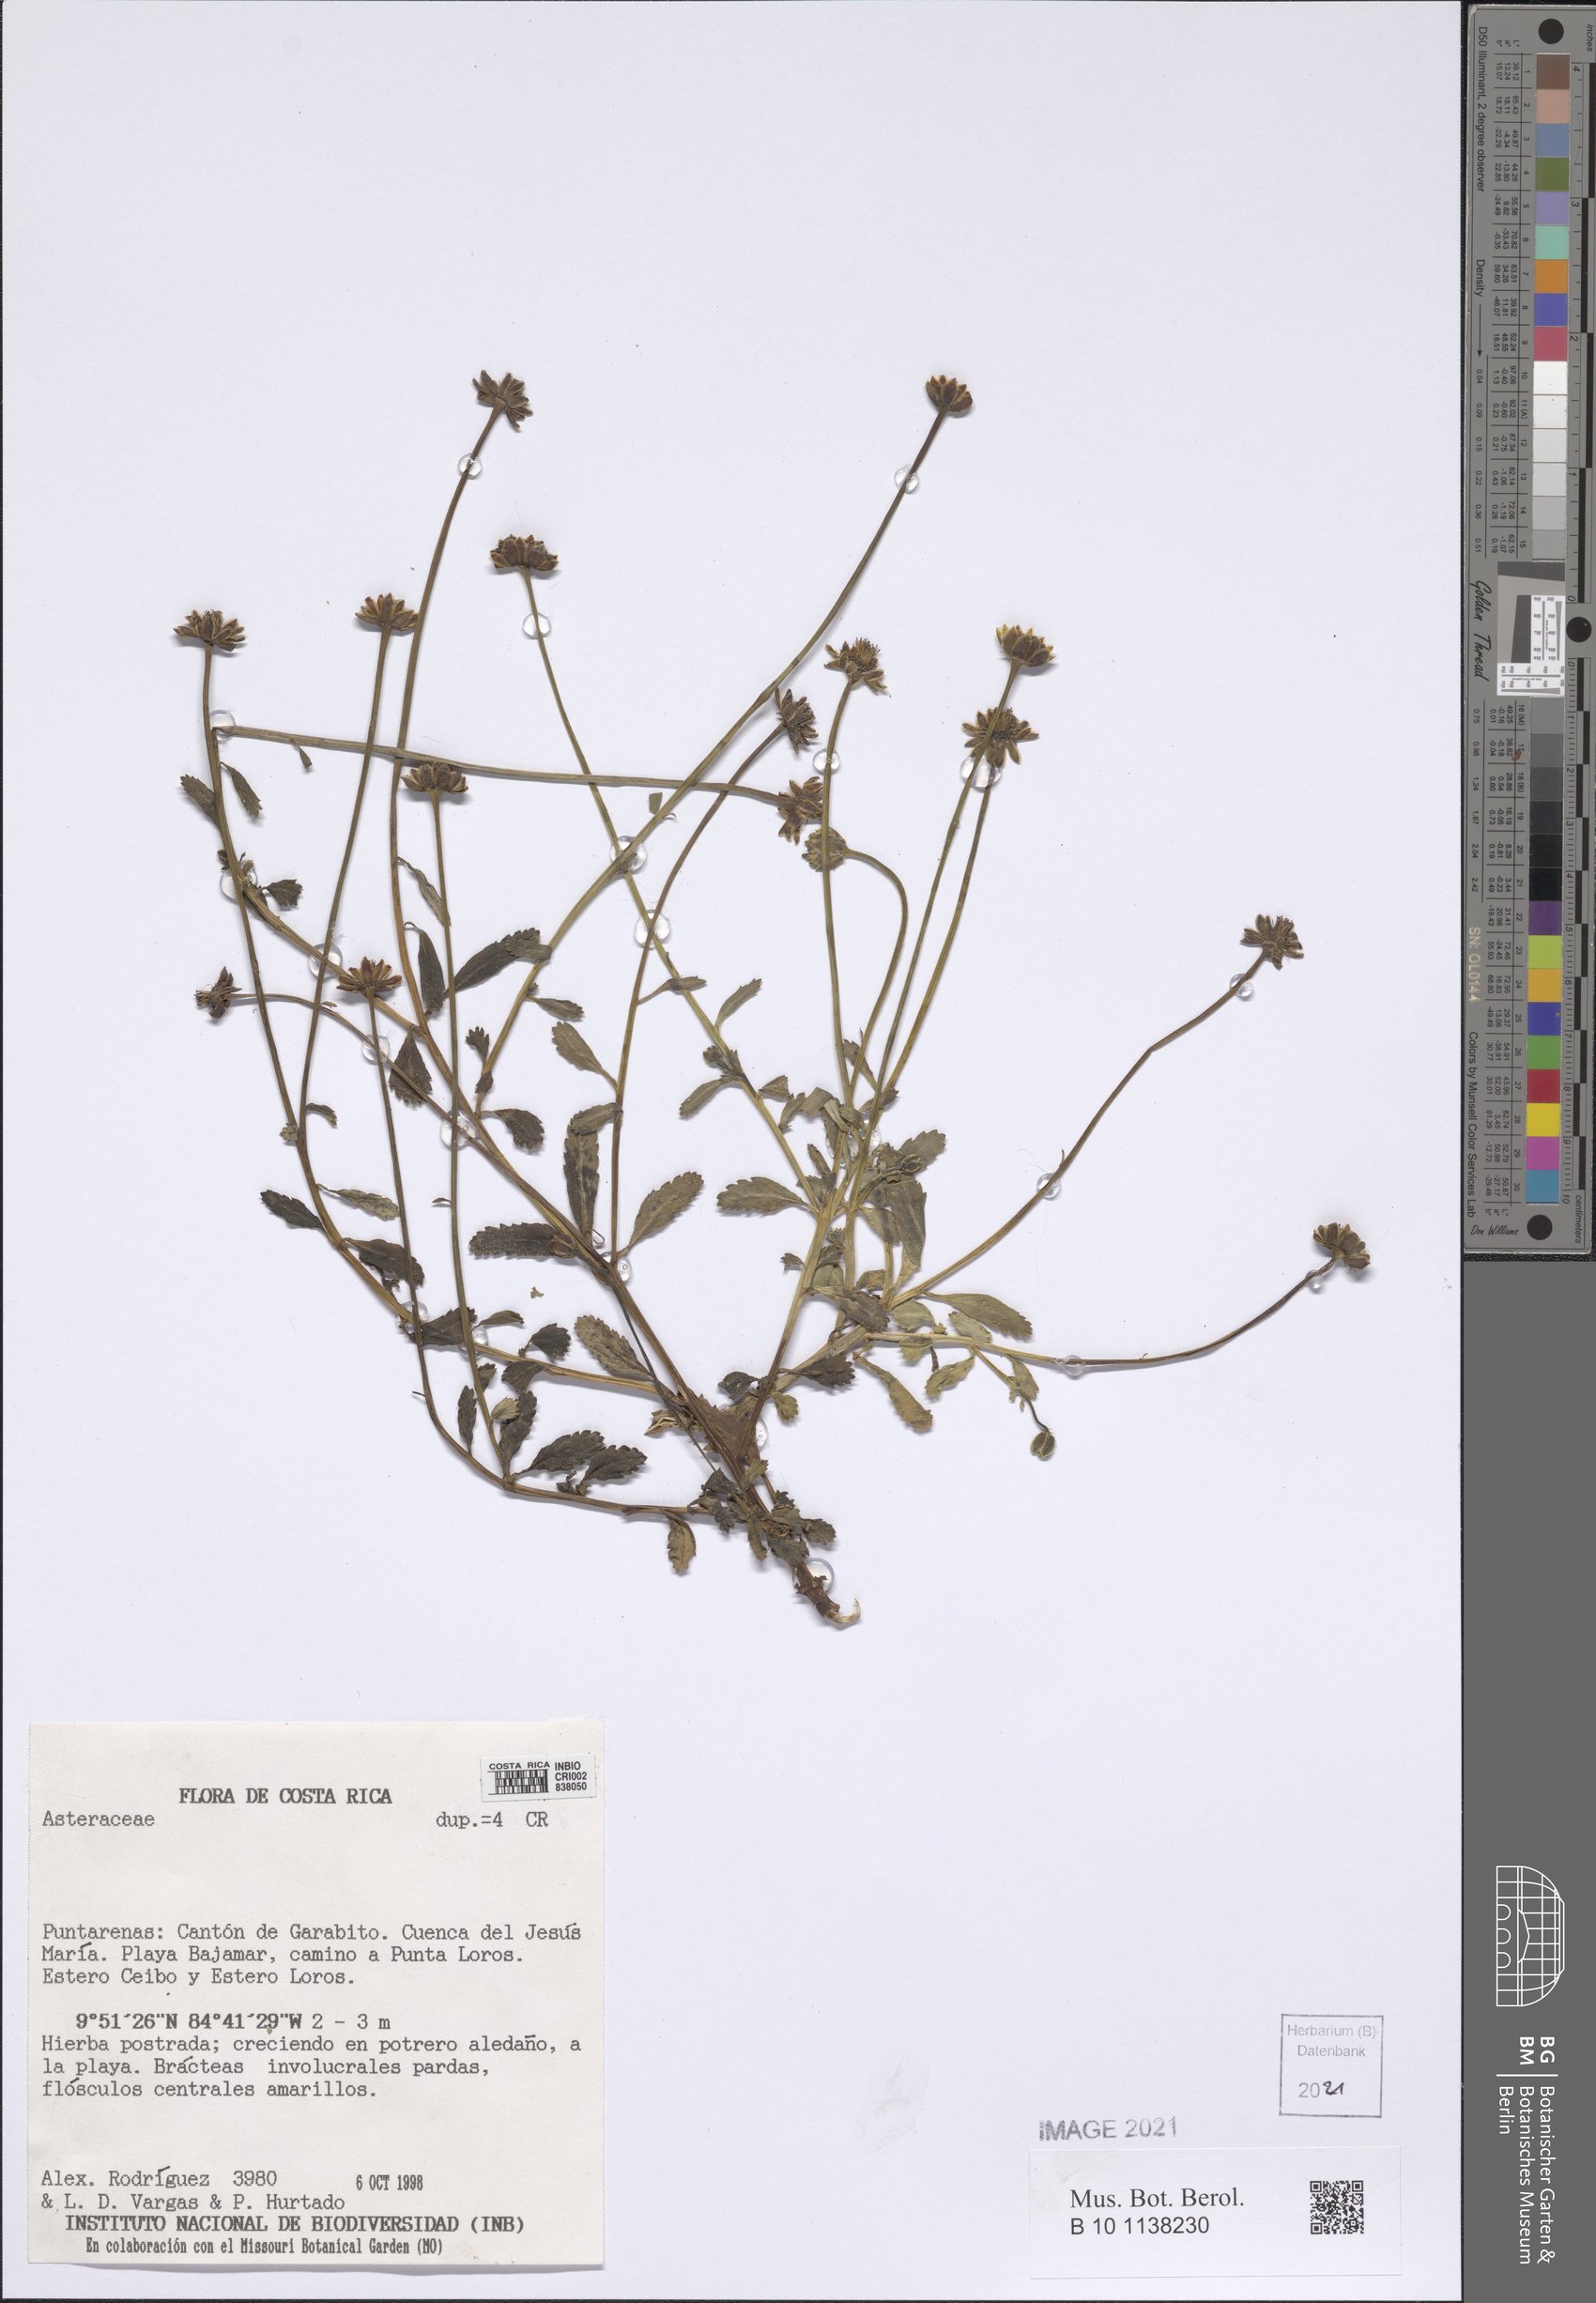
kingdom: Plantae
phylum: Tracheophyta
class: Magnoliopsida
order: Asterales
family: Asteraceae
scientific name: Asteraceae
